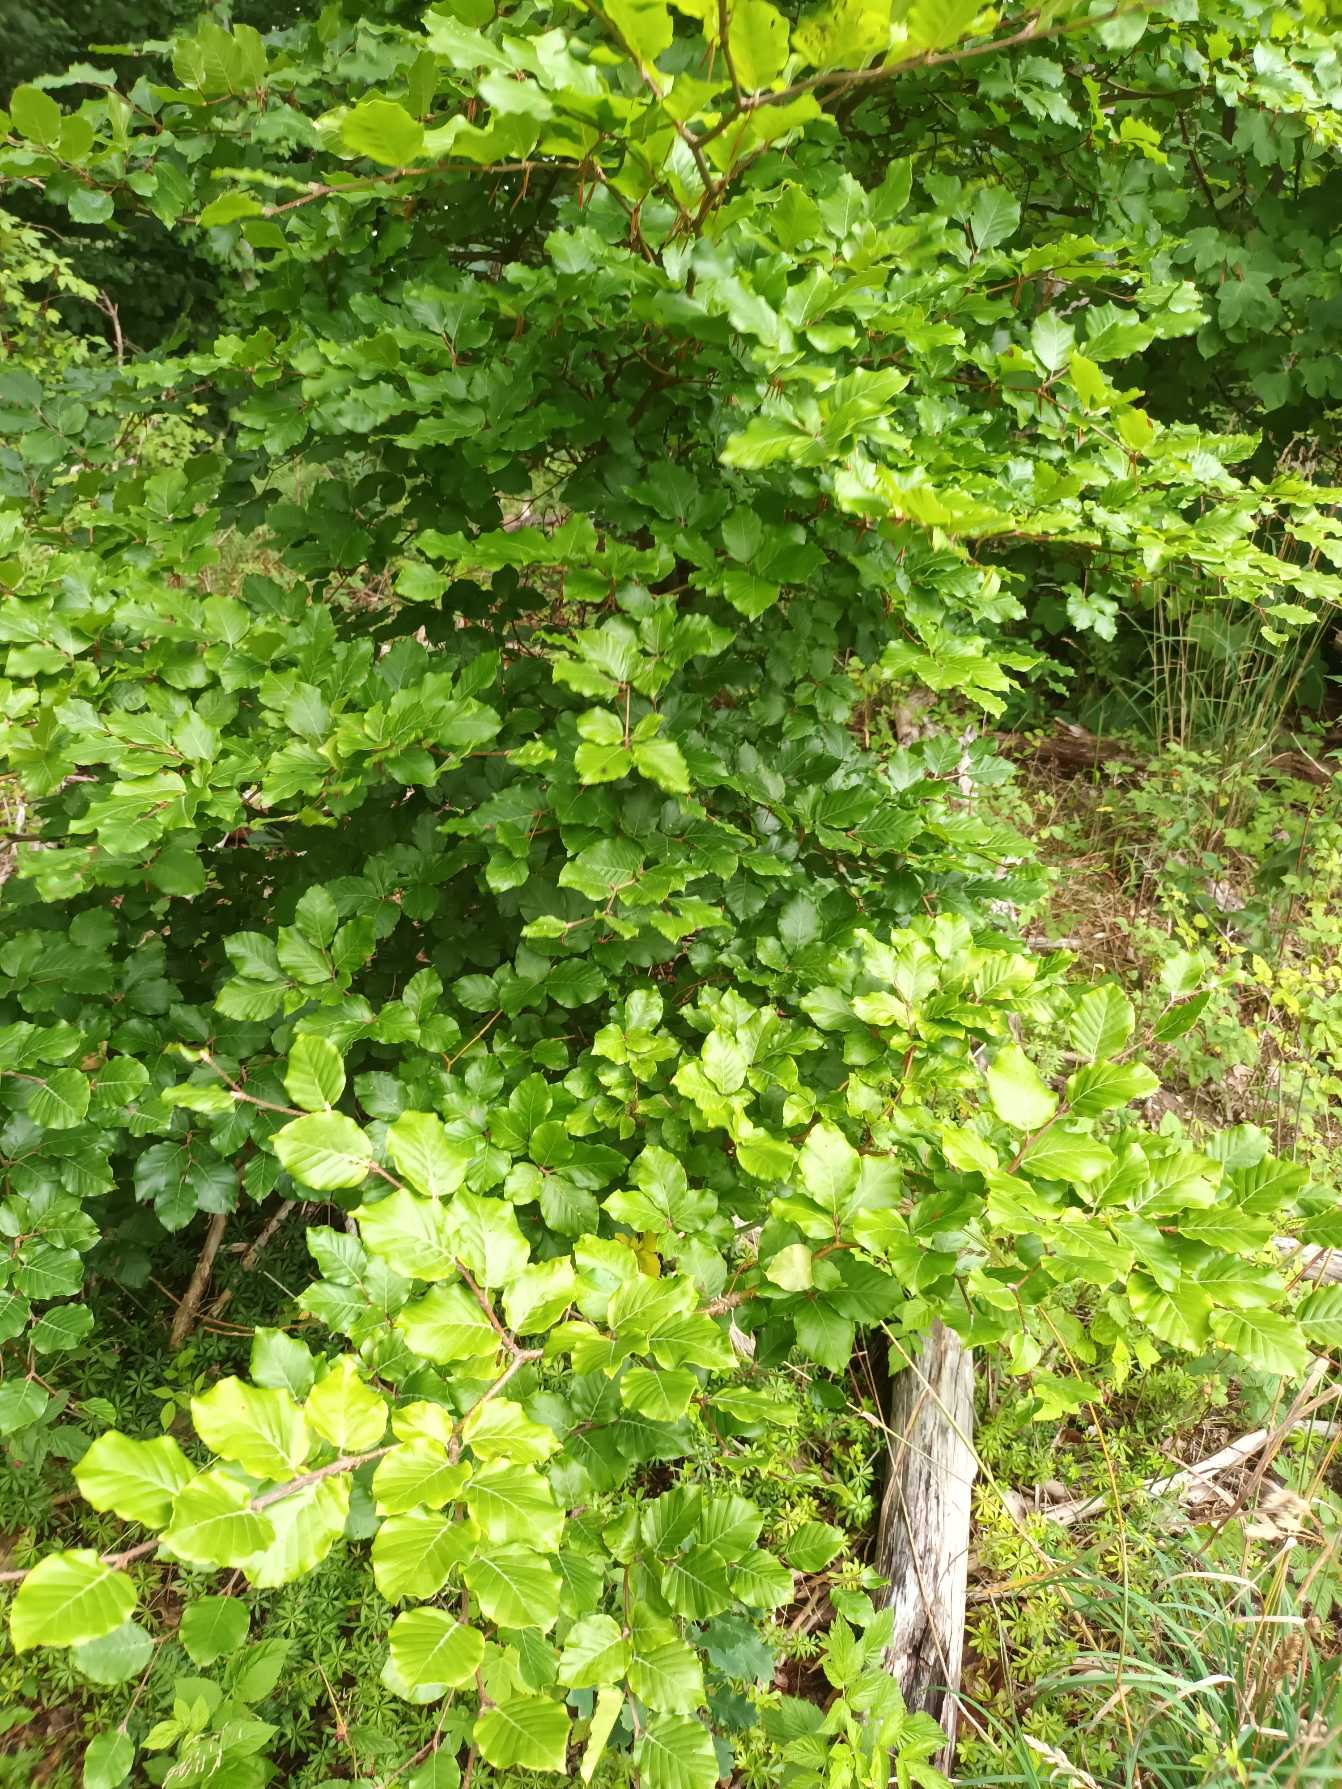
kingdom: Plantae
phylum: Tracheophyta
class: Magnoliopsida
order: Fagales
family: Fagaceae
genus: Fagus
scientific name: Fagus sylvatica
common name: Bøg
